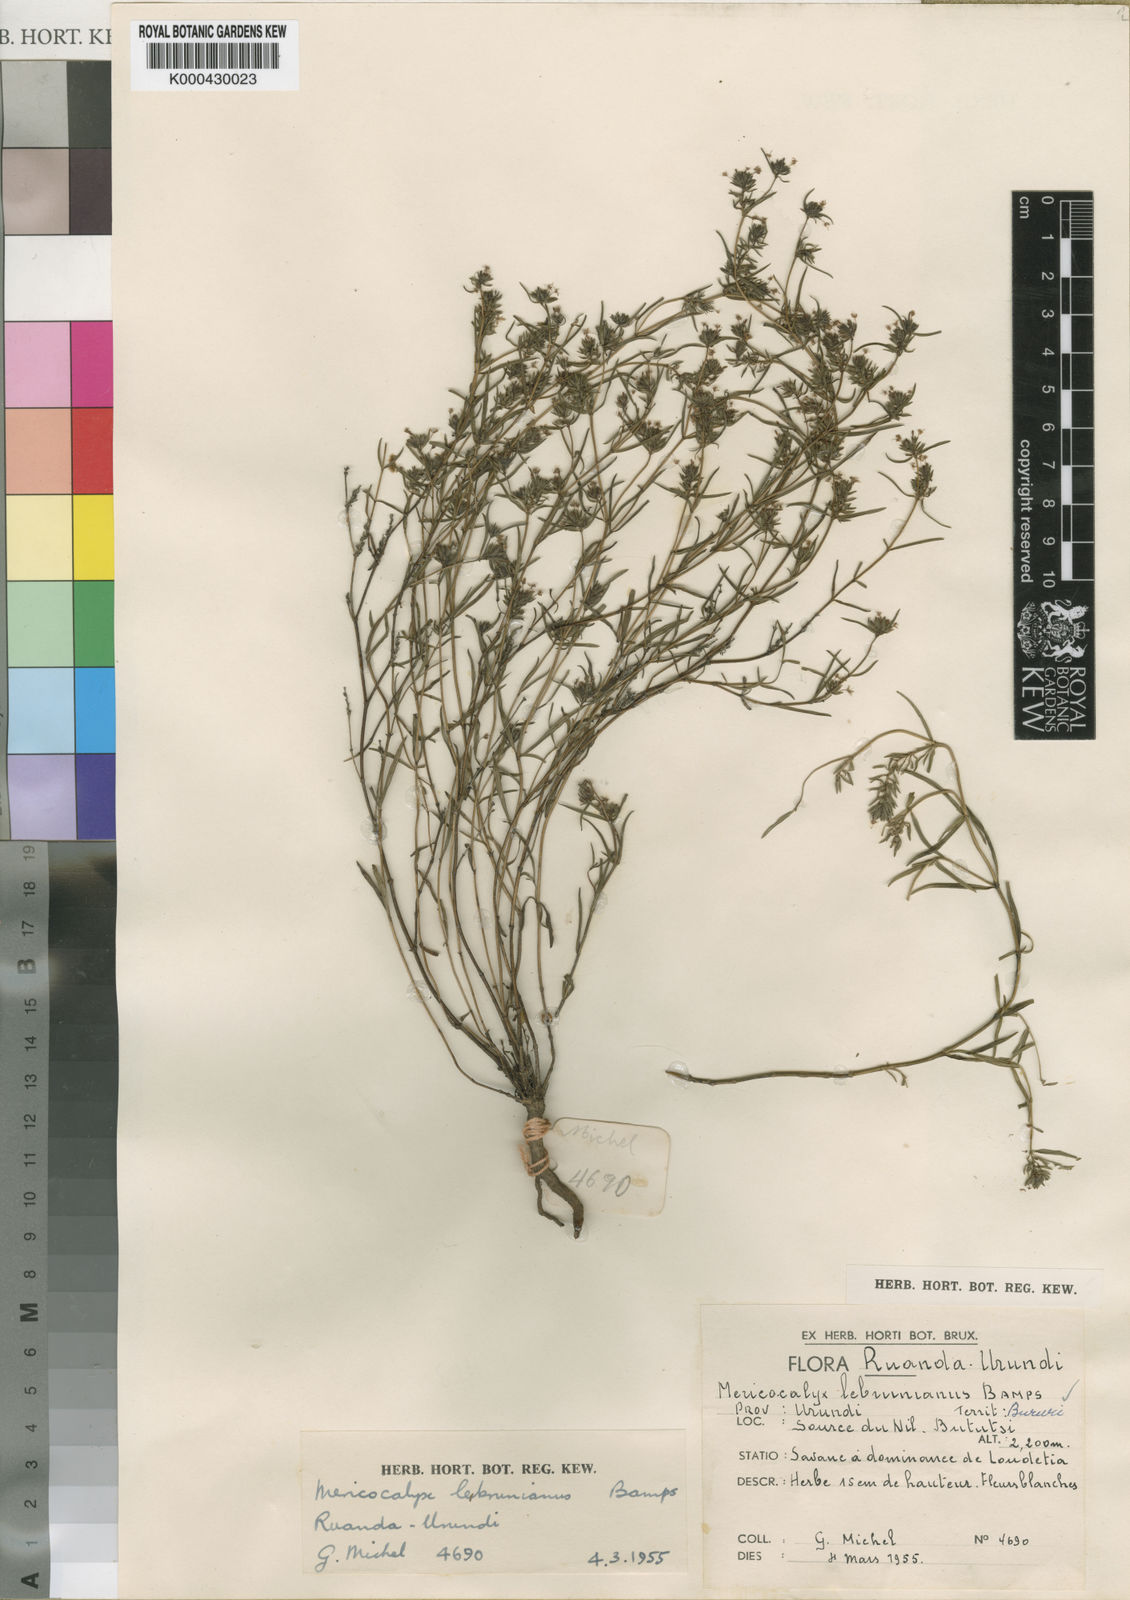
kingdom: Plantae
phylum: Tracheophyta
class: Magnoliopsida
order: Gentianales
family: Rubiaceae
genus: Otiophora
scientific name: Otiophora lebruniana
